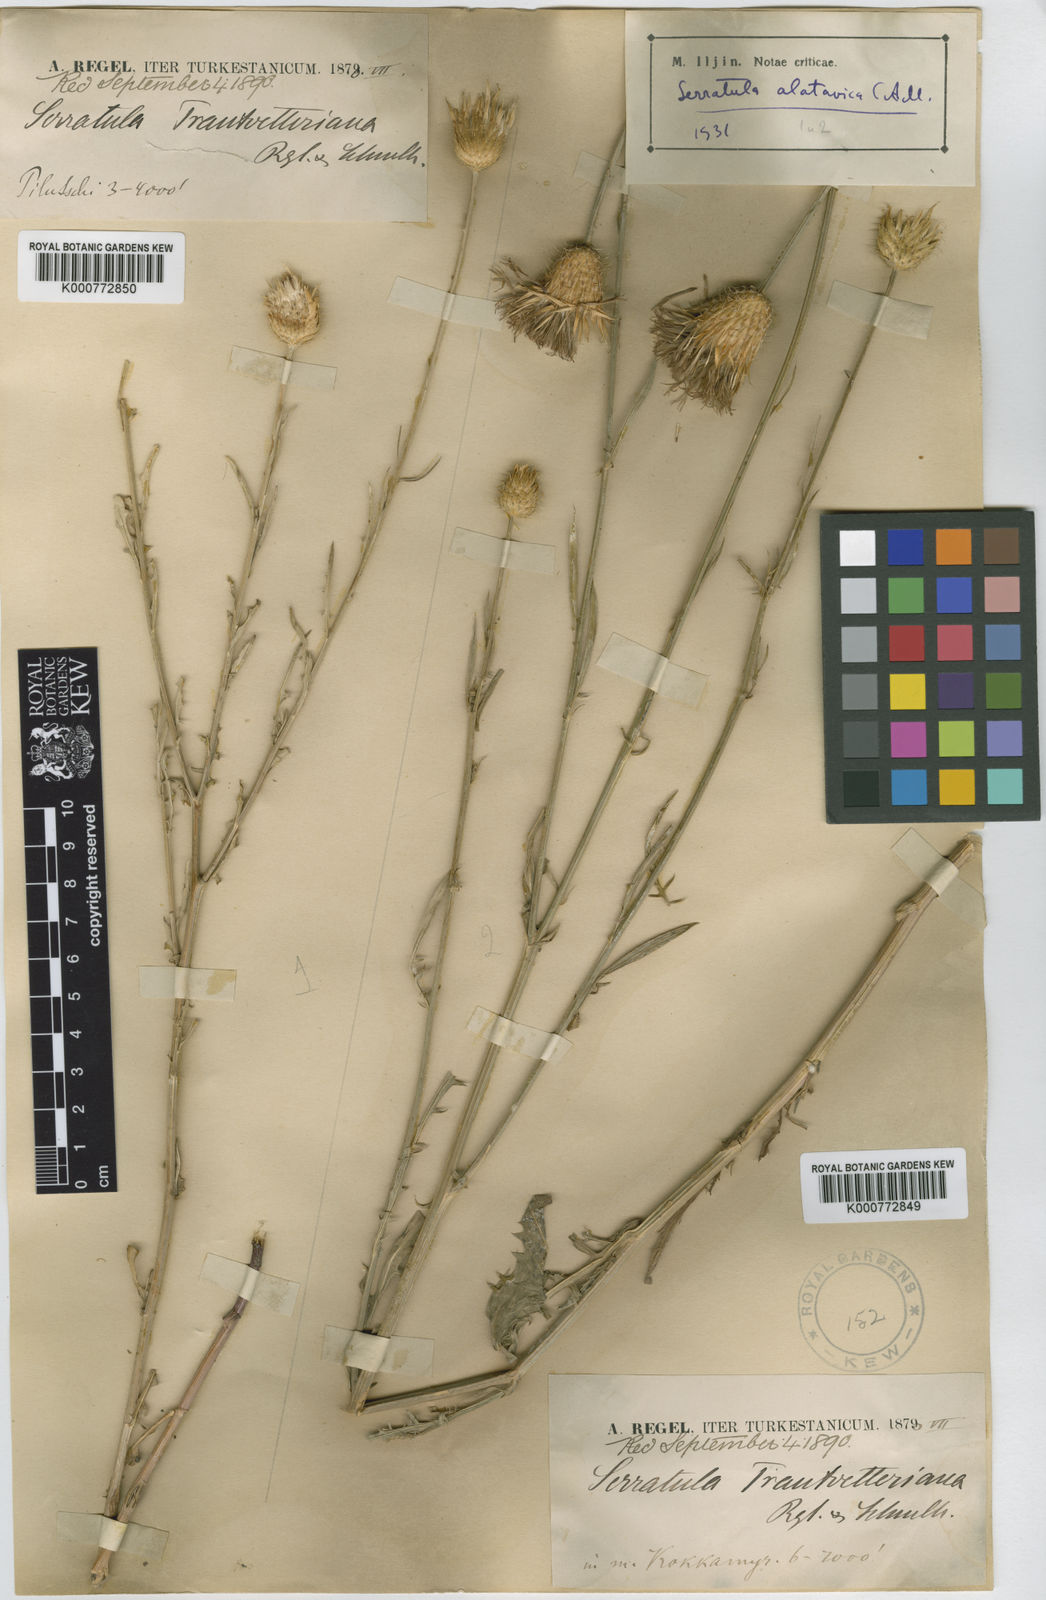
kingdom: Plantae
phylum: Tracheophyta
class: Magnoliopsida
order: Asterales
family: Asteraceae
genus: Serratula
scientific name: Serratula
